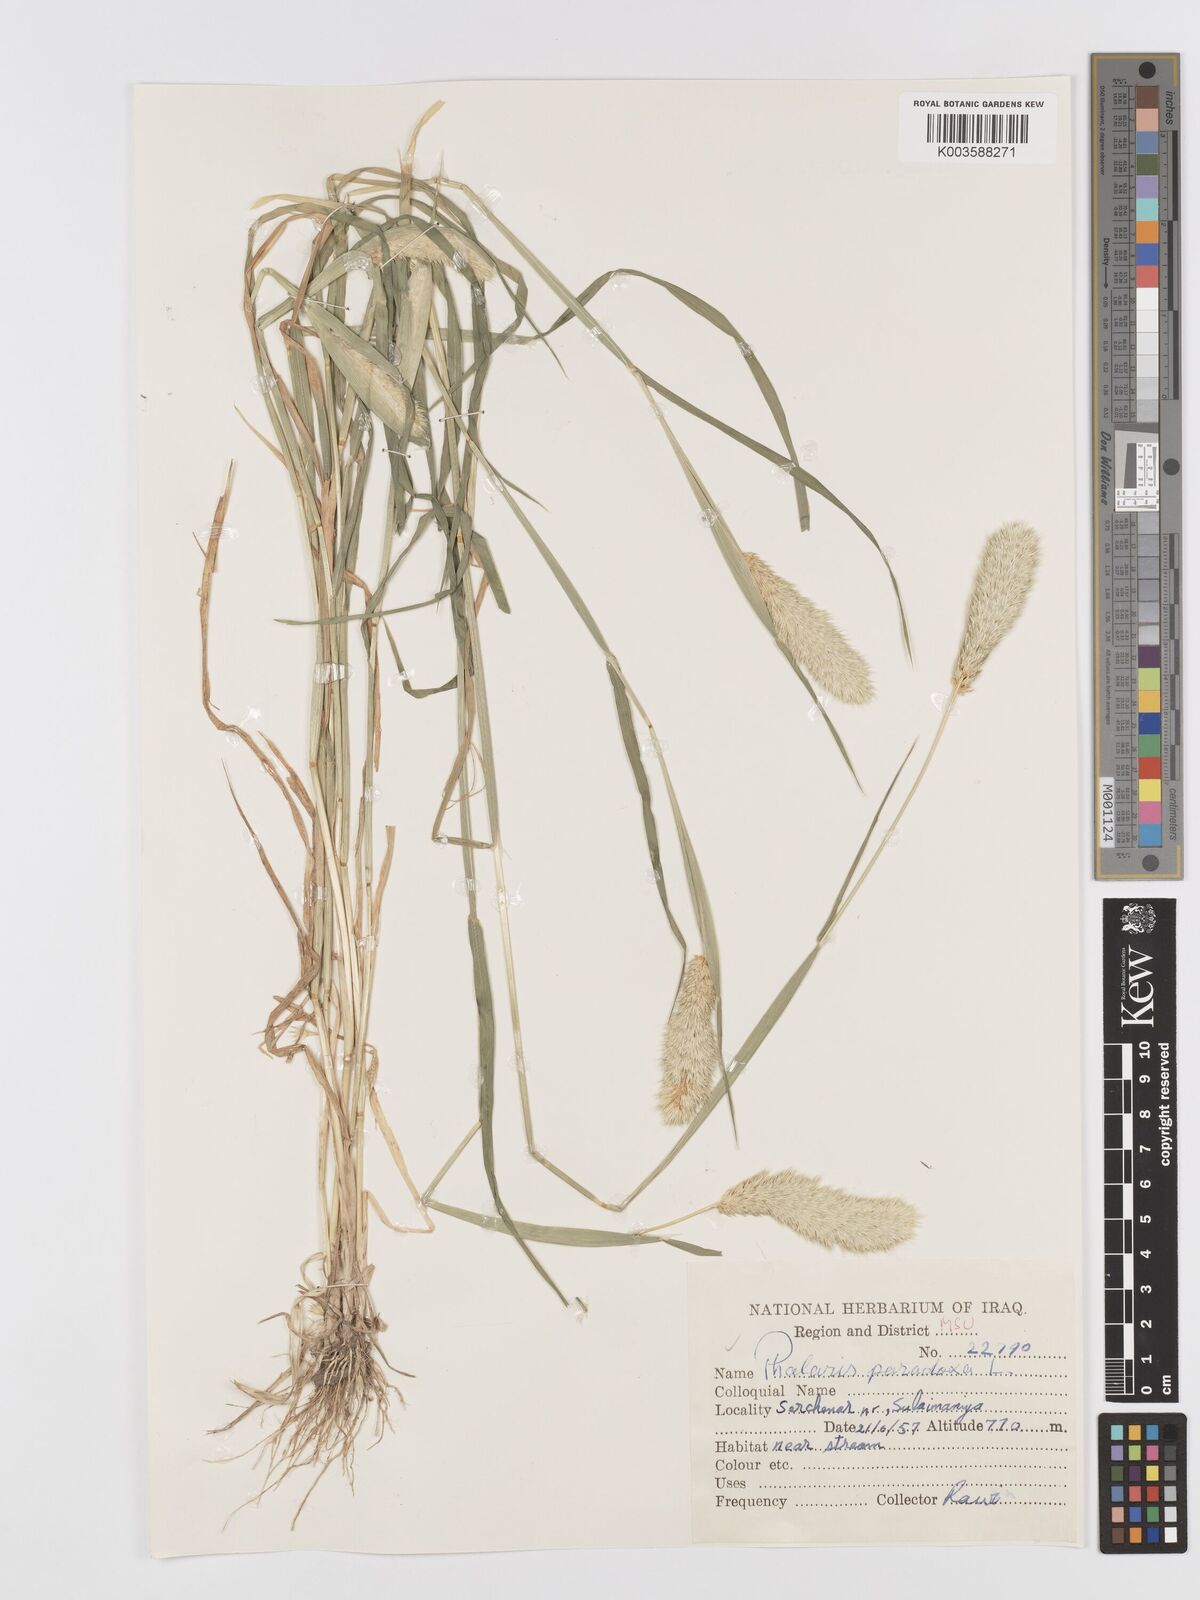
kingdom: Plantae
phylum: Tracheophyta
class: Liliopsida
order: Poales
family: Poaceae
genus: Phalaris
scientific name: Phalaris paradoxa
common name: Awned canary-grass
